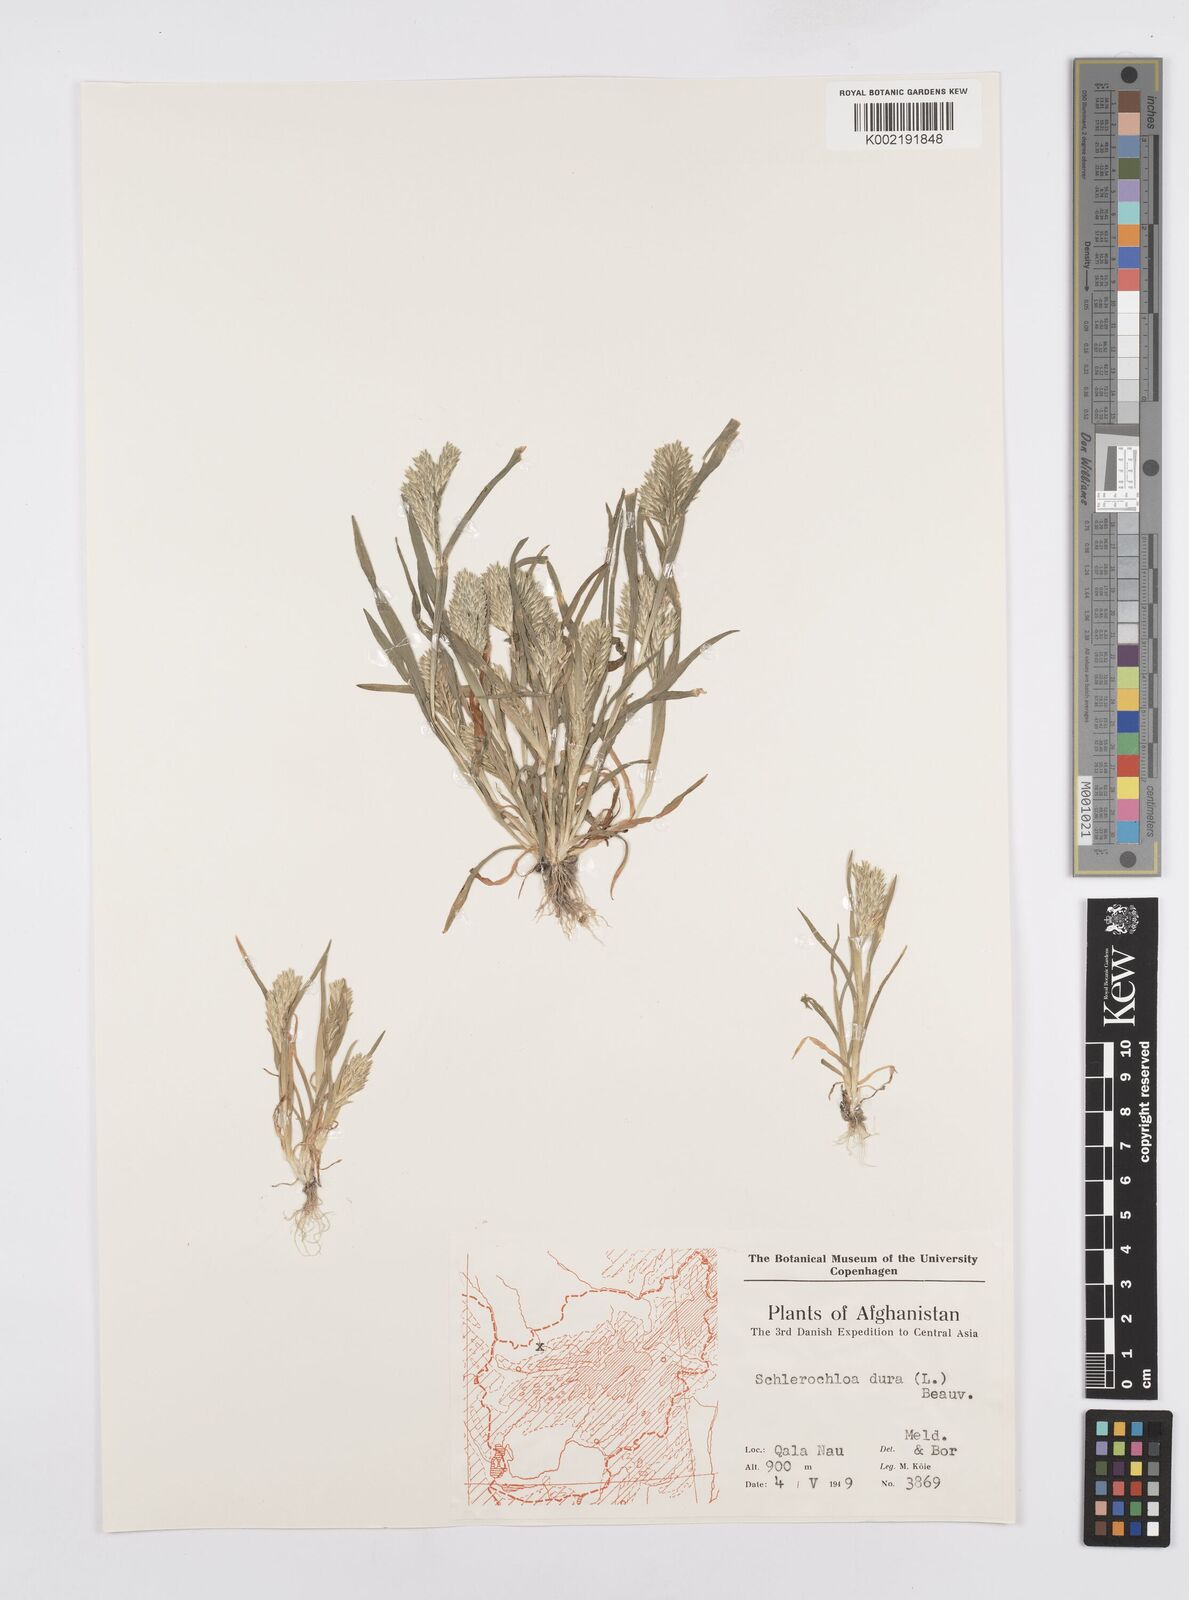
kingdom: Plantae
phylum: Tracheophyta
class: Liliopsida
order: Poales
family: Poaceae
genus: Sclerochloa
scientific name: Sclerochloa dura
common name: Common hardgrass
